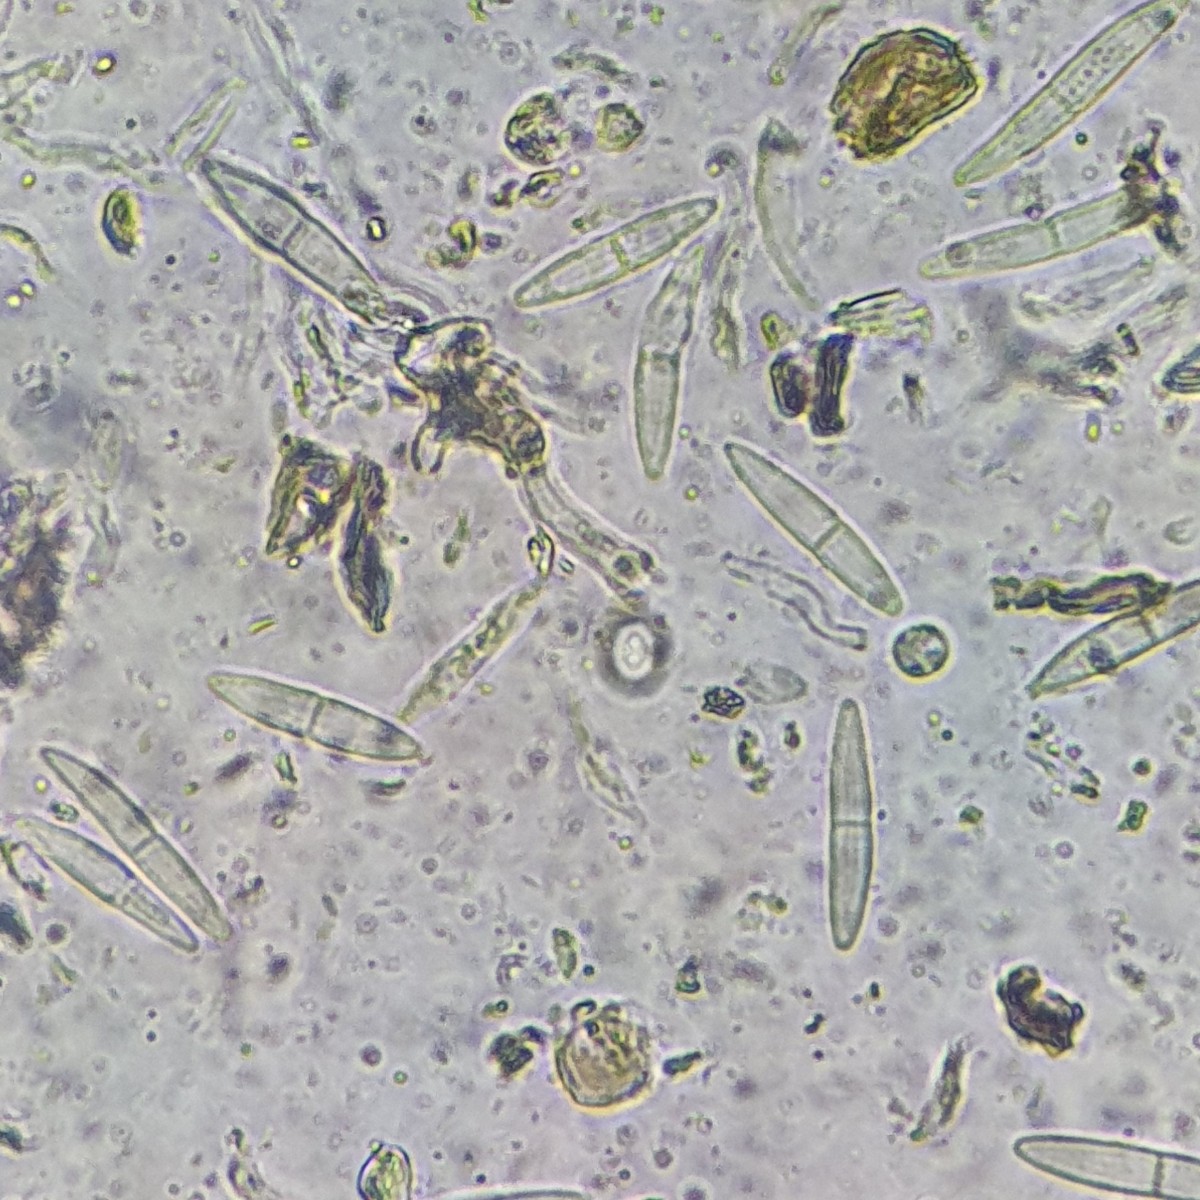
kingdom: Fungi
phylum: Ascomycota
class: Sordariomycetes
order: Diaporthales
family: Gnomoniaceae
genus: Plagiostoma
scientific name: Plagiostoma aesculi
